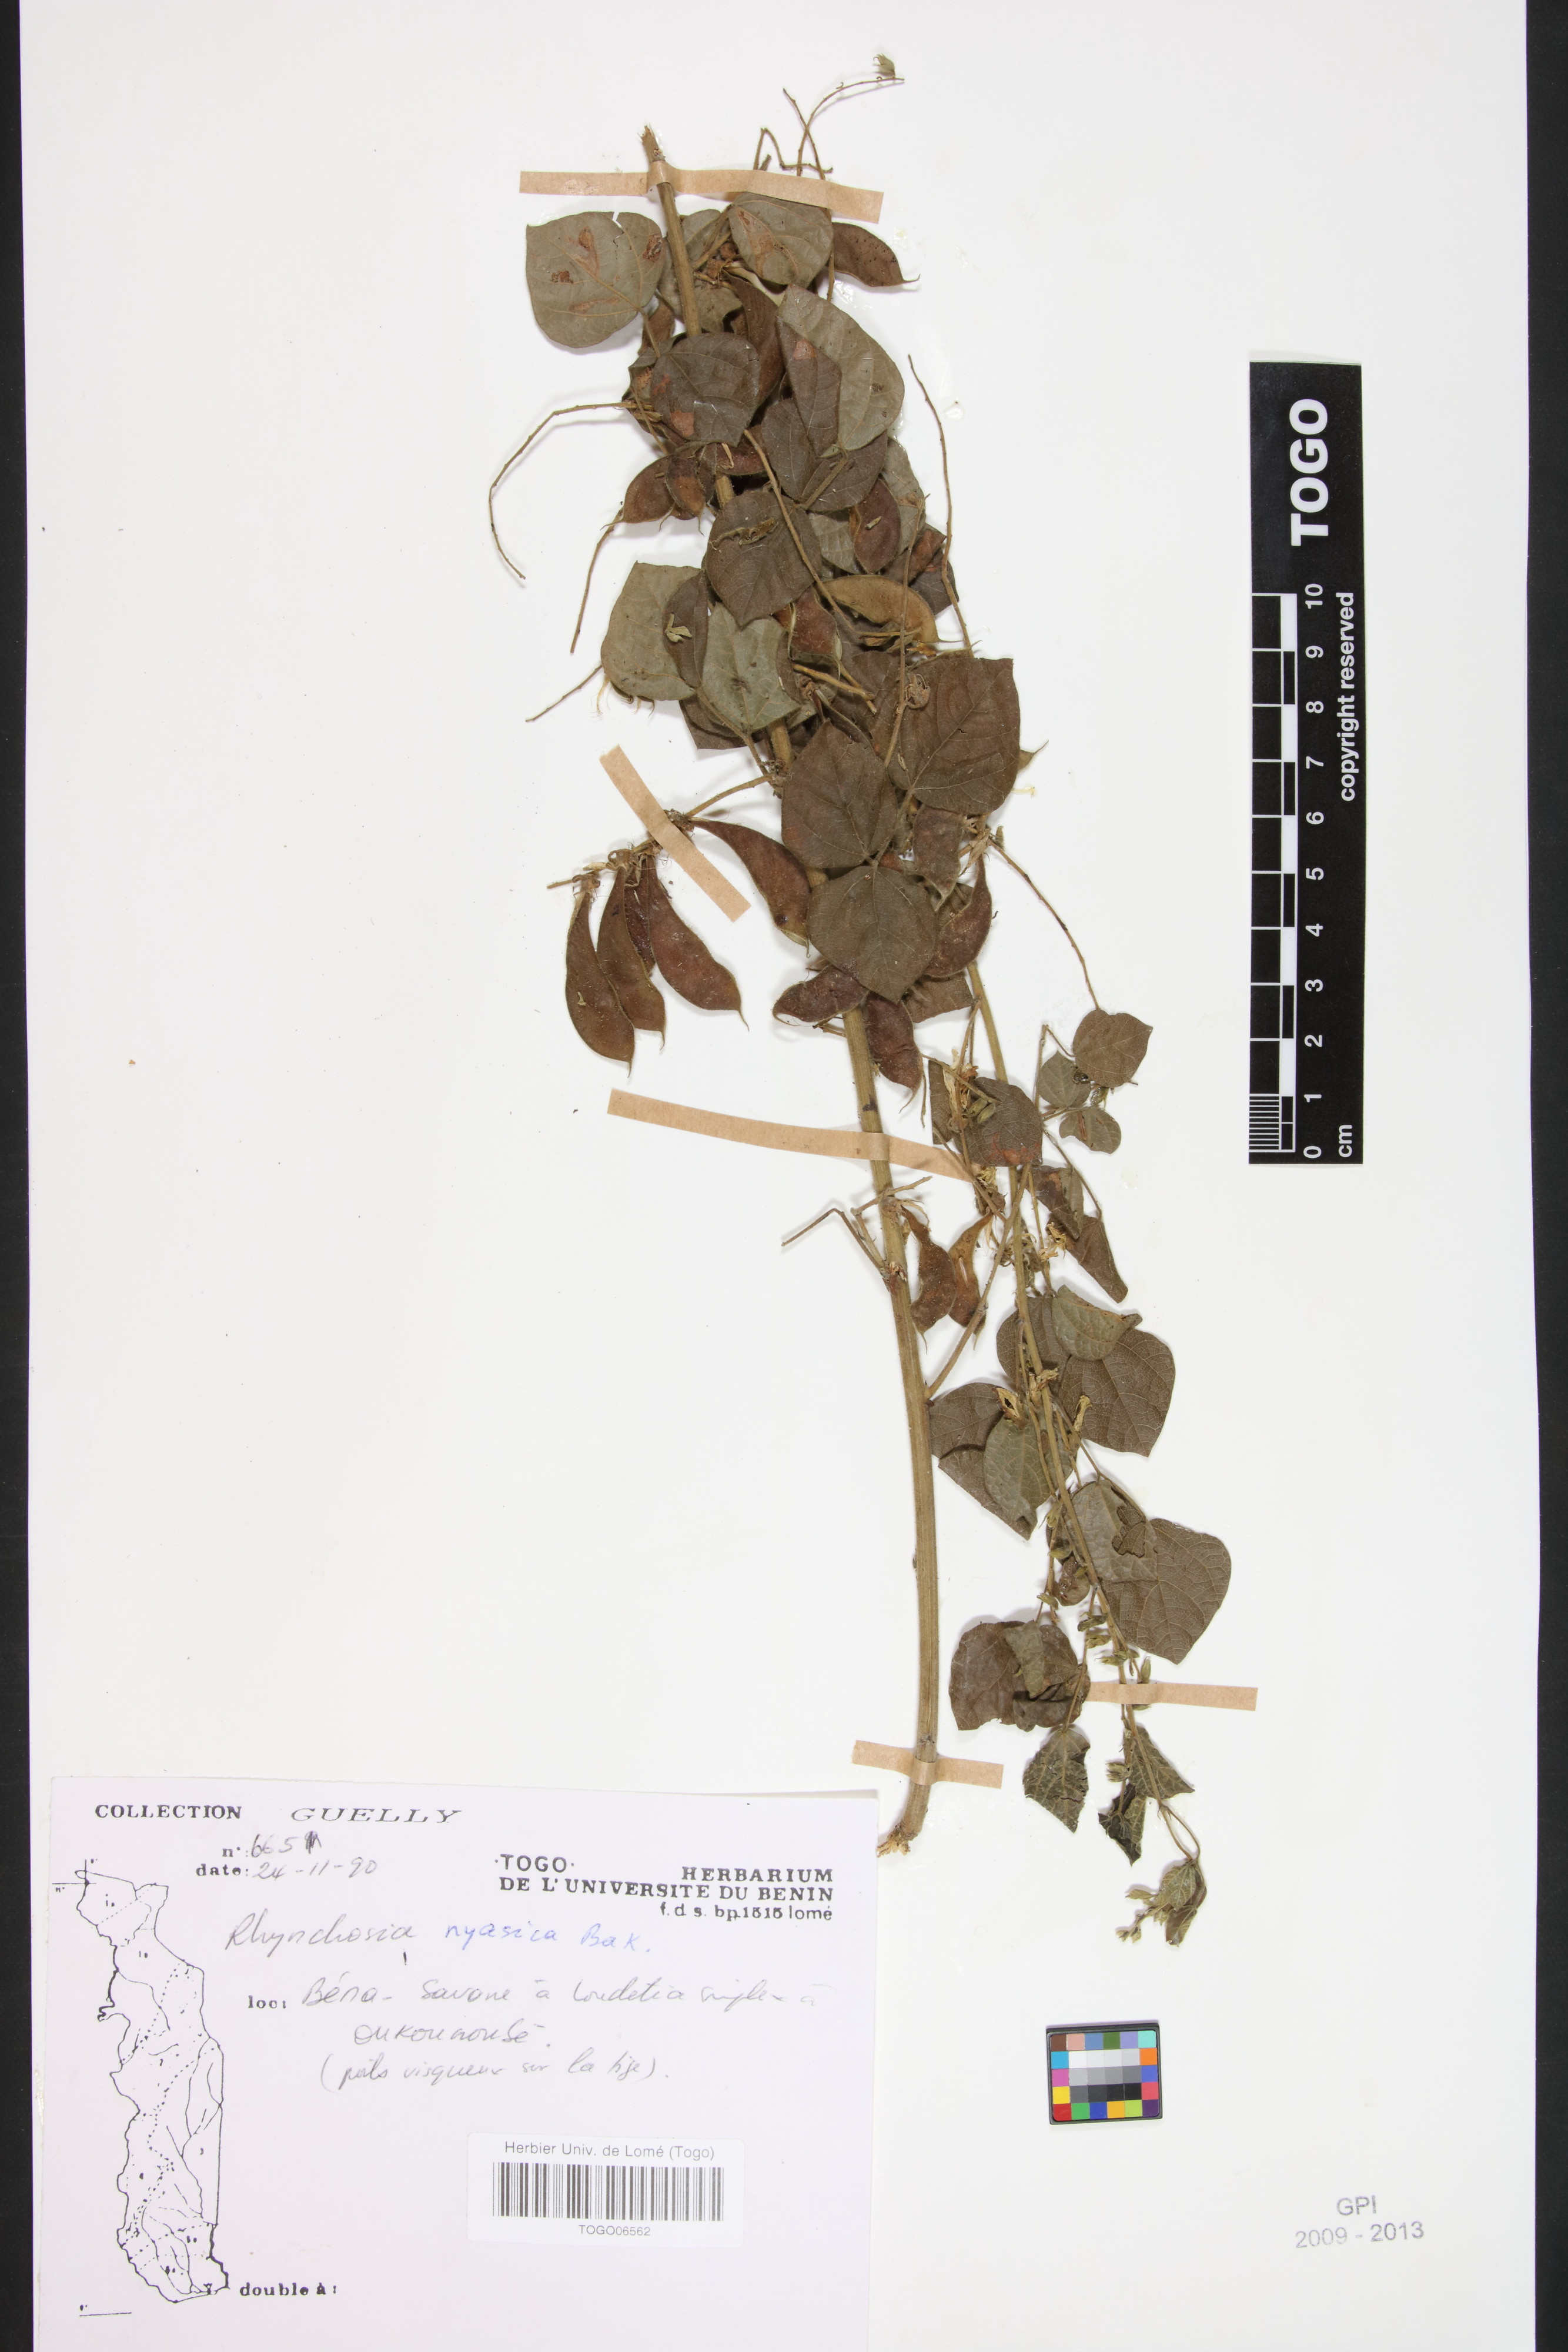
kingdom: Plantae
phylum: Tracheophyta
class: Magnoliopsida
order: Fabales
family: Fabaceae
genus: Rhynchosia
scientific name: Rhynchosia nyasica
